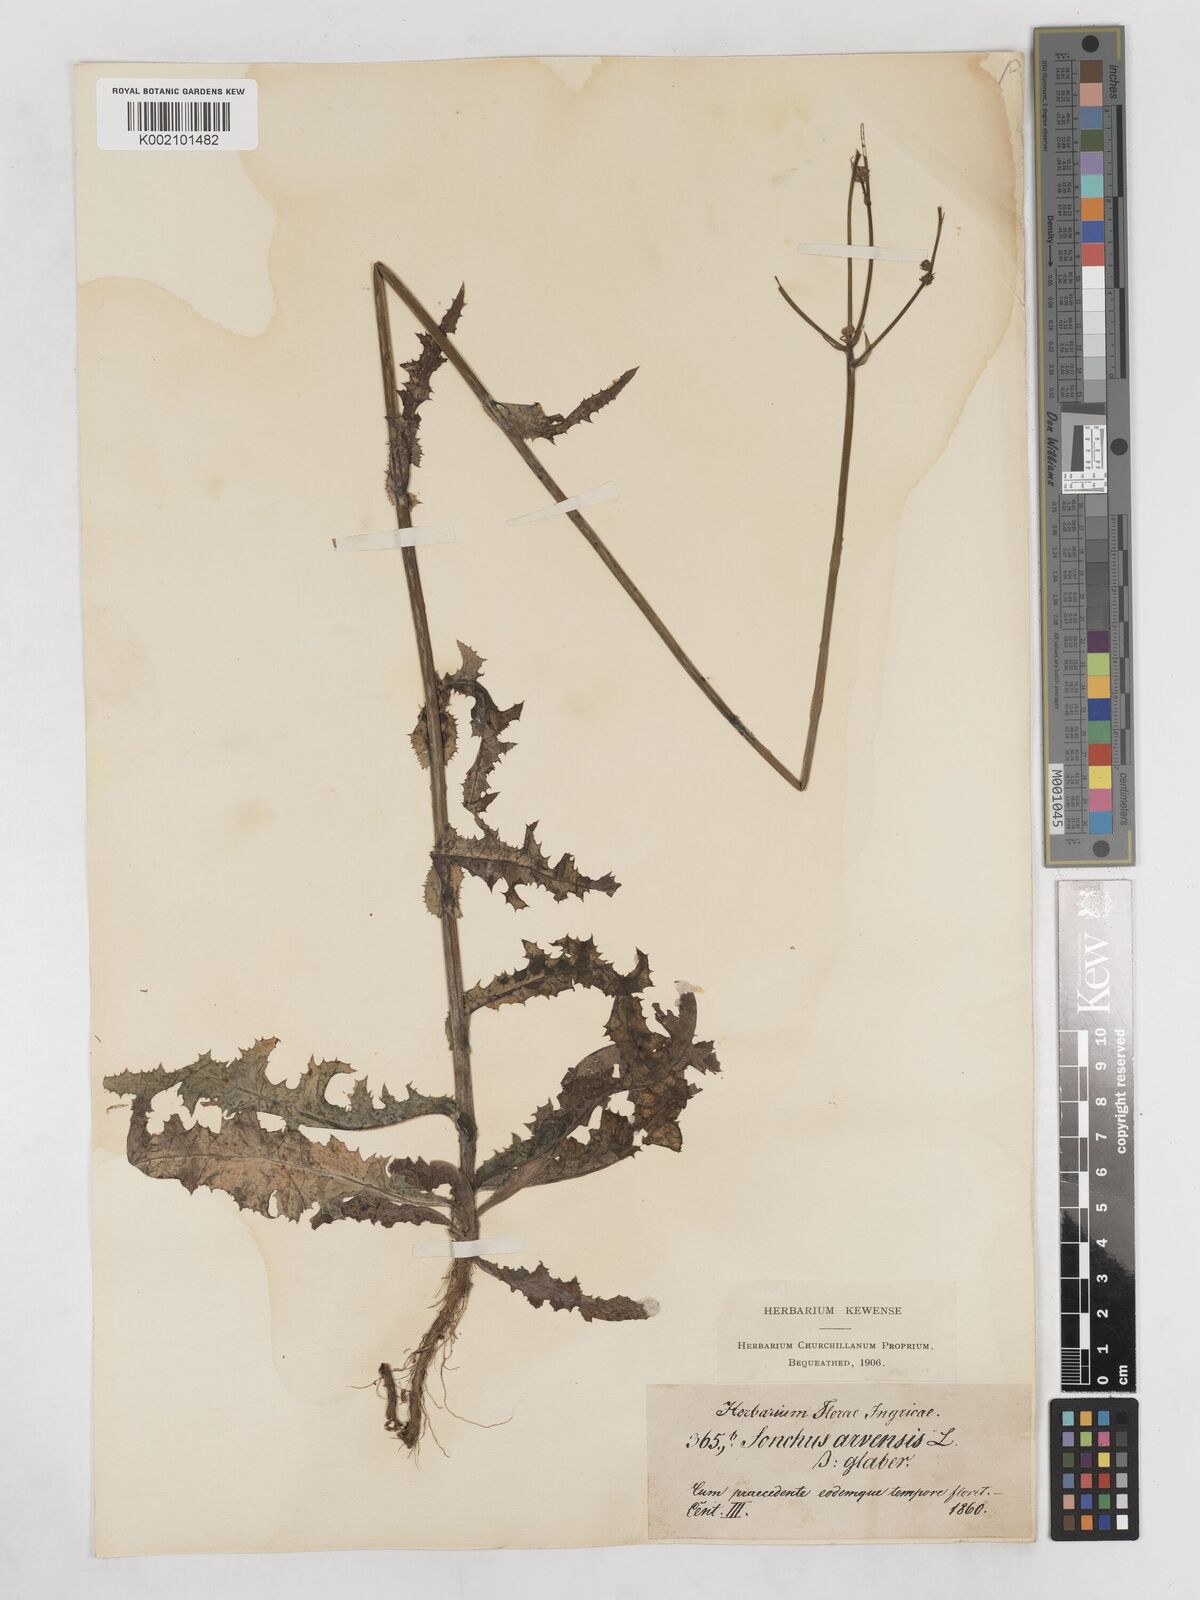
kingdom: Plantae
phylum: Tracheophyta
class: Magnoliopsida
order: Asterales
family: Asteraceae
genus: Sonchus
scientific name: Sonchus arvensis
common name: Perennial sow-thistle
